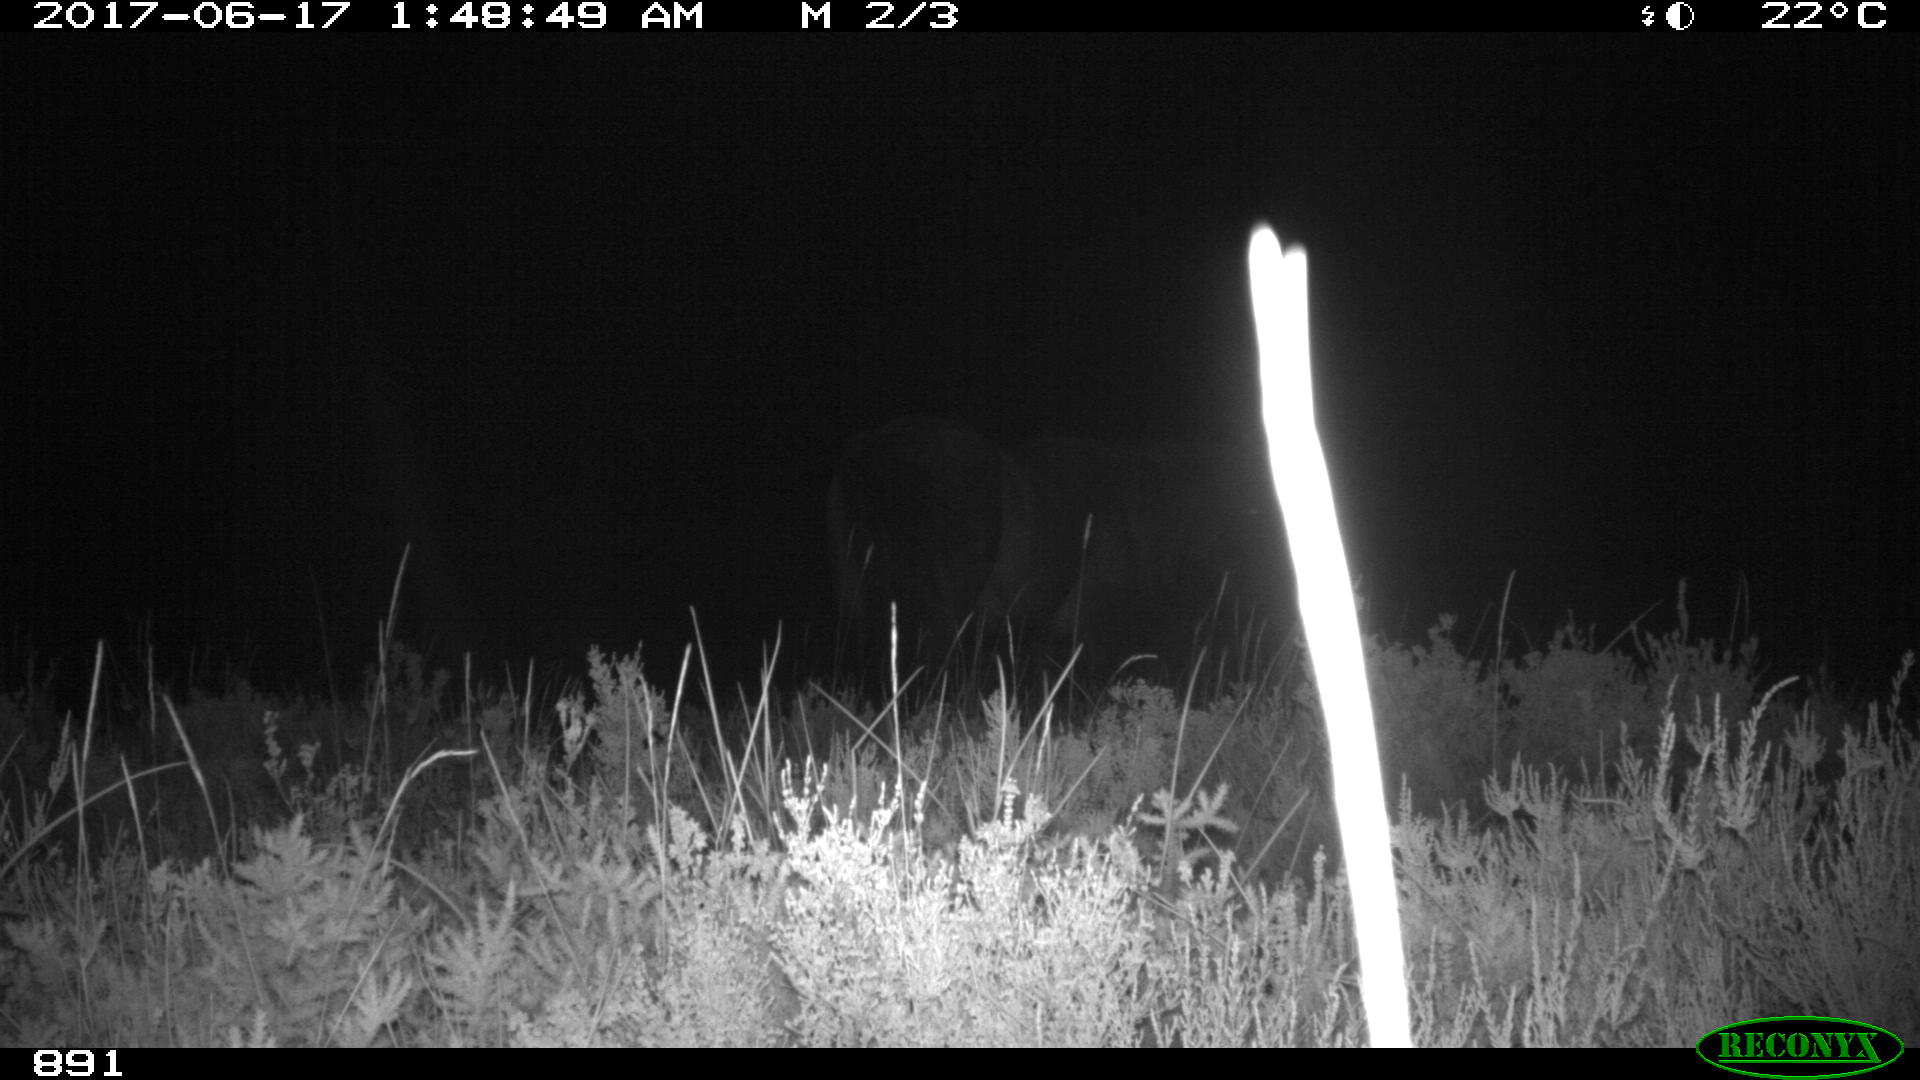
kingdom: Animalia
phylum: Chordata
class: Mammalia
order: Perissodactyla
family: Equidae
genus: Equus
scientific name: Equus caballus
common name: Horse
